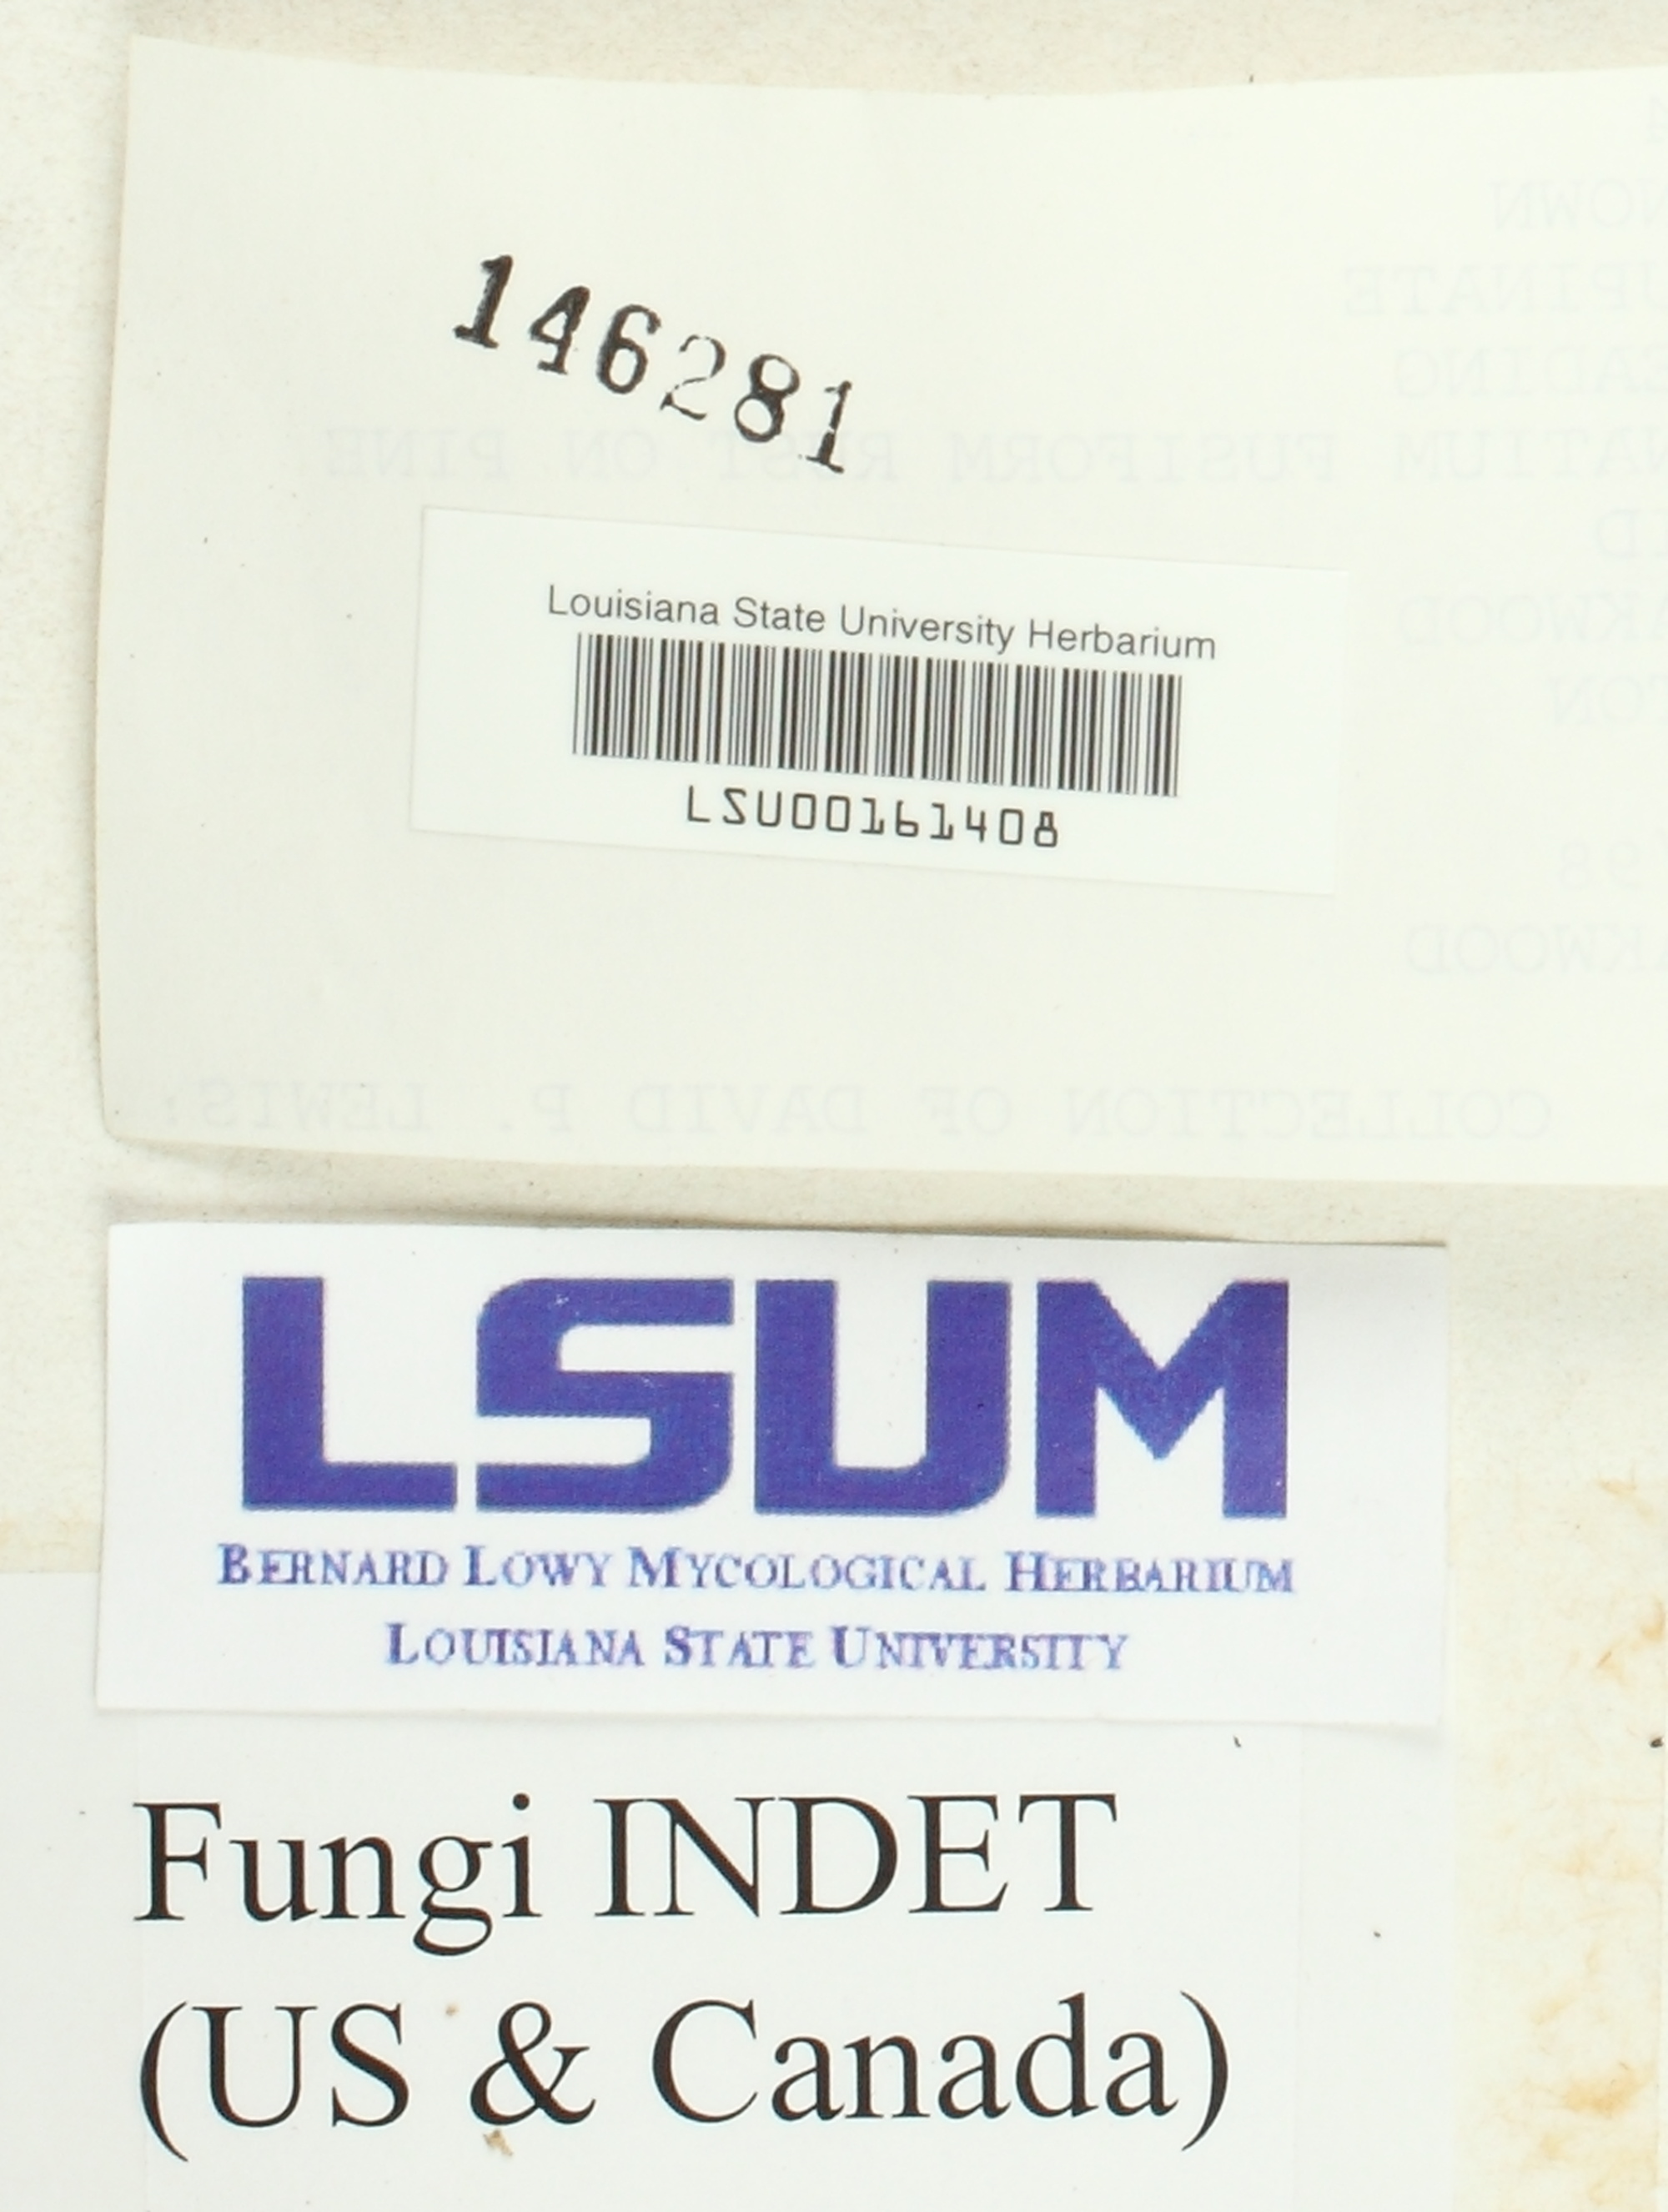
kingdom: Fungi
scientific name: Fungi
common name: Fungi
